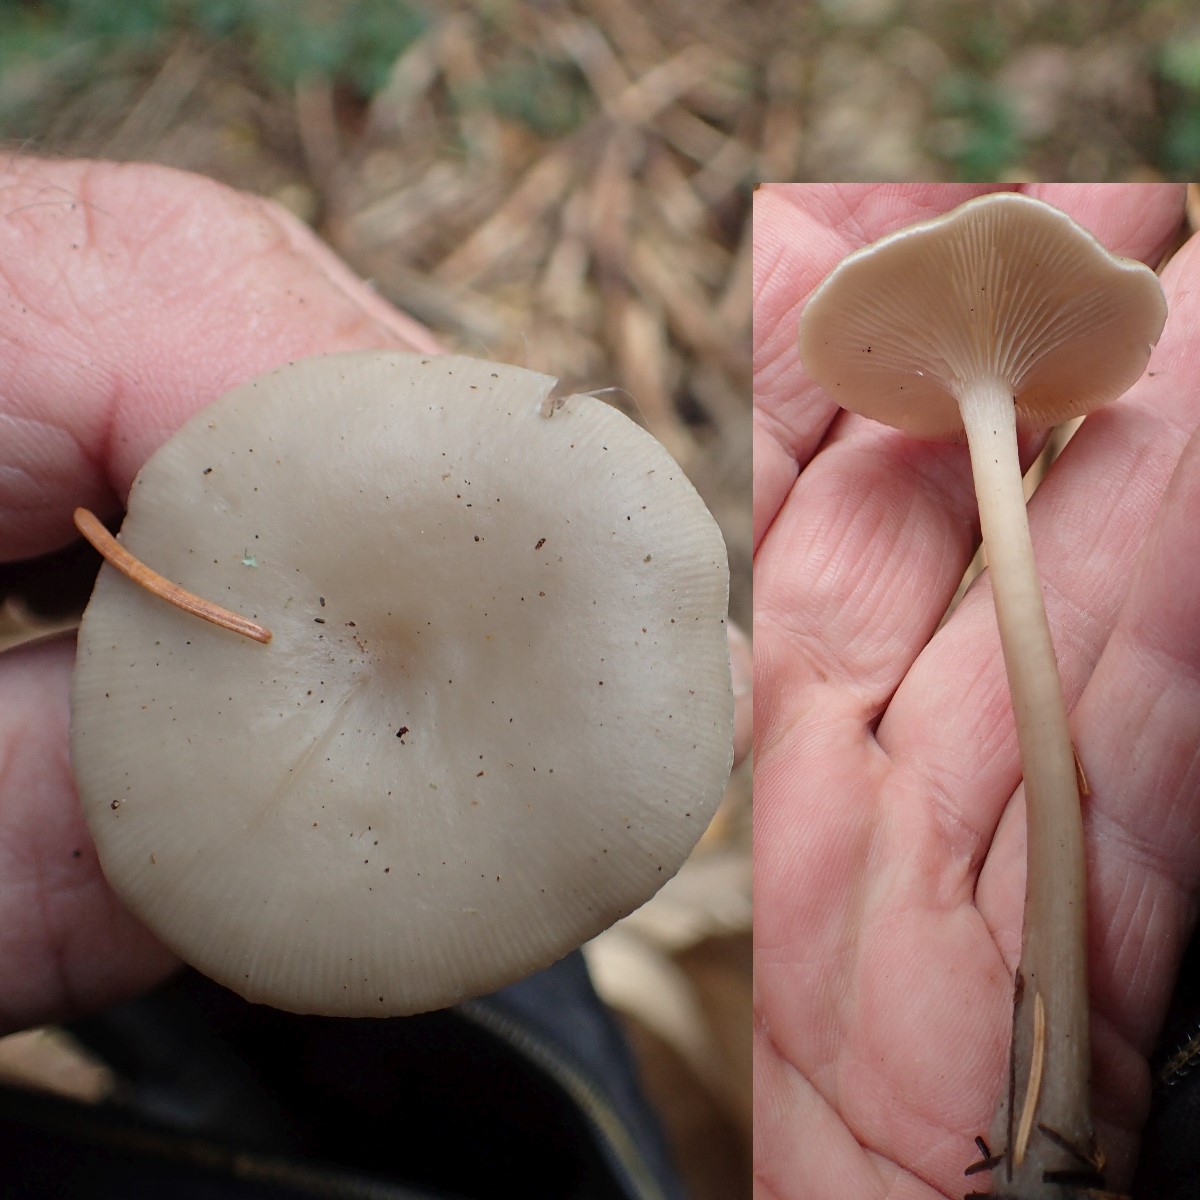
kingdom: Fungi
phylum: Basidiomycota
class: Agaricomycetes
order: Agaricales
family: Tricholomataceae
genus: Clitocybe
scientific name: Clitocybe vibecina
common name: randstribet tragthat
